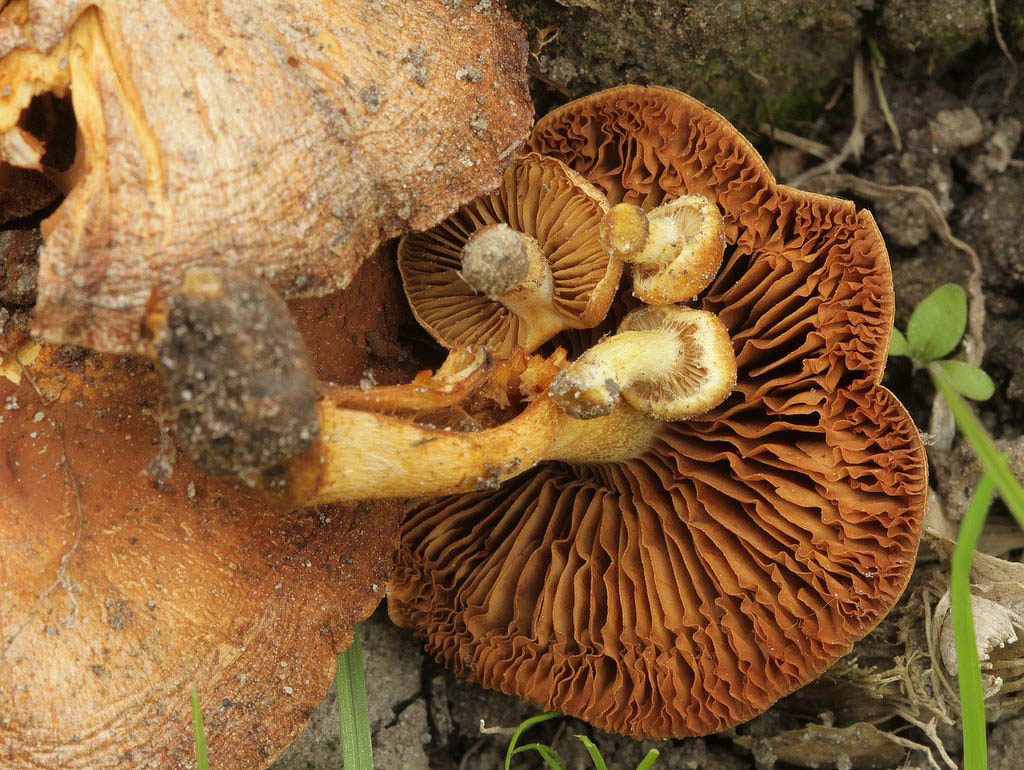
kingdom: Fungi
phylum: Basidiomycota
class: Agaricomycetes
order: Agaricales
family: Strophariaceae
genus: Pholiota
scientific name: Pholiota conissans
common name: pile-skælhat
